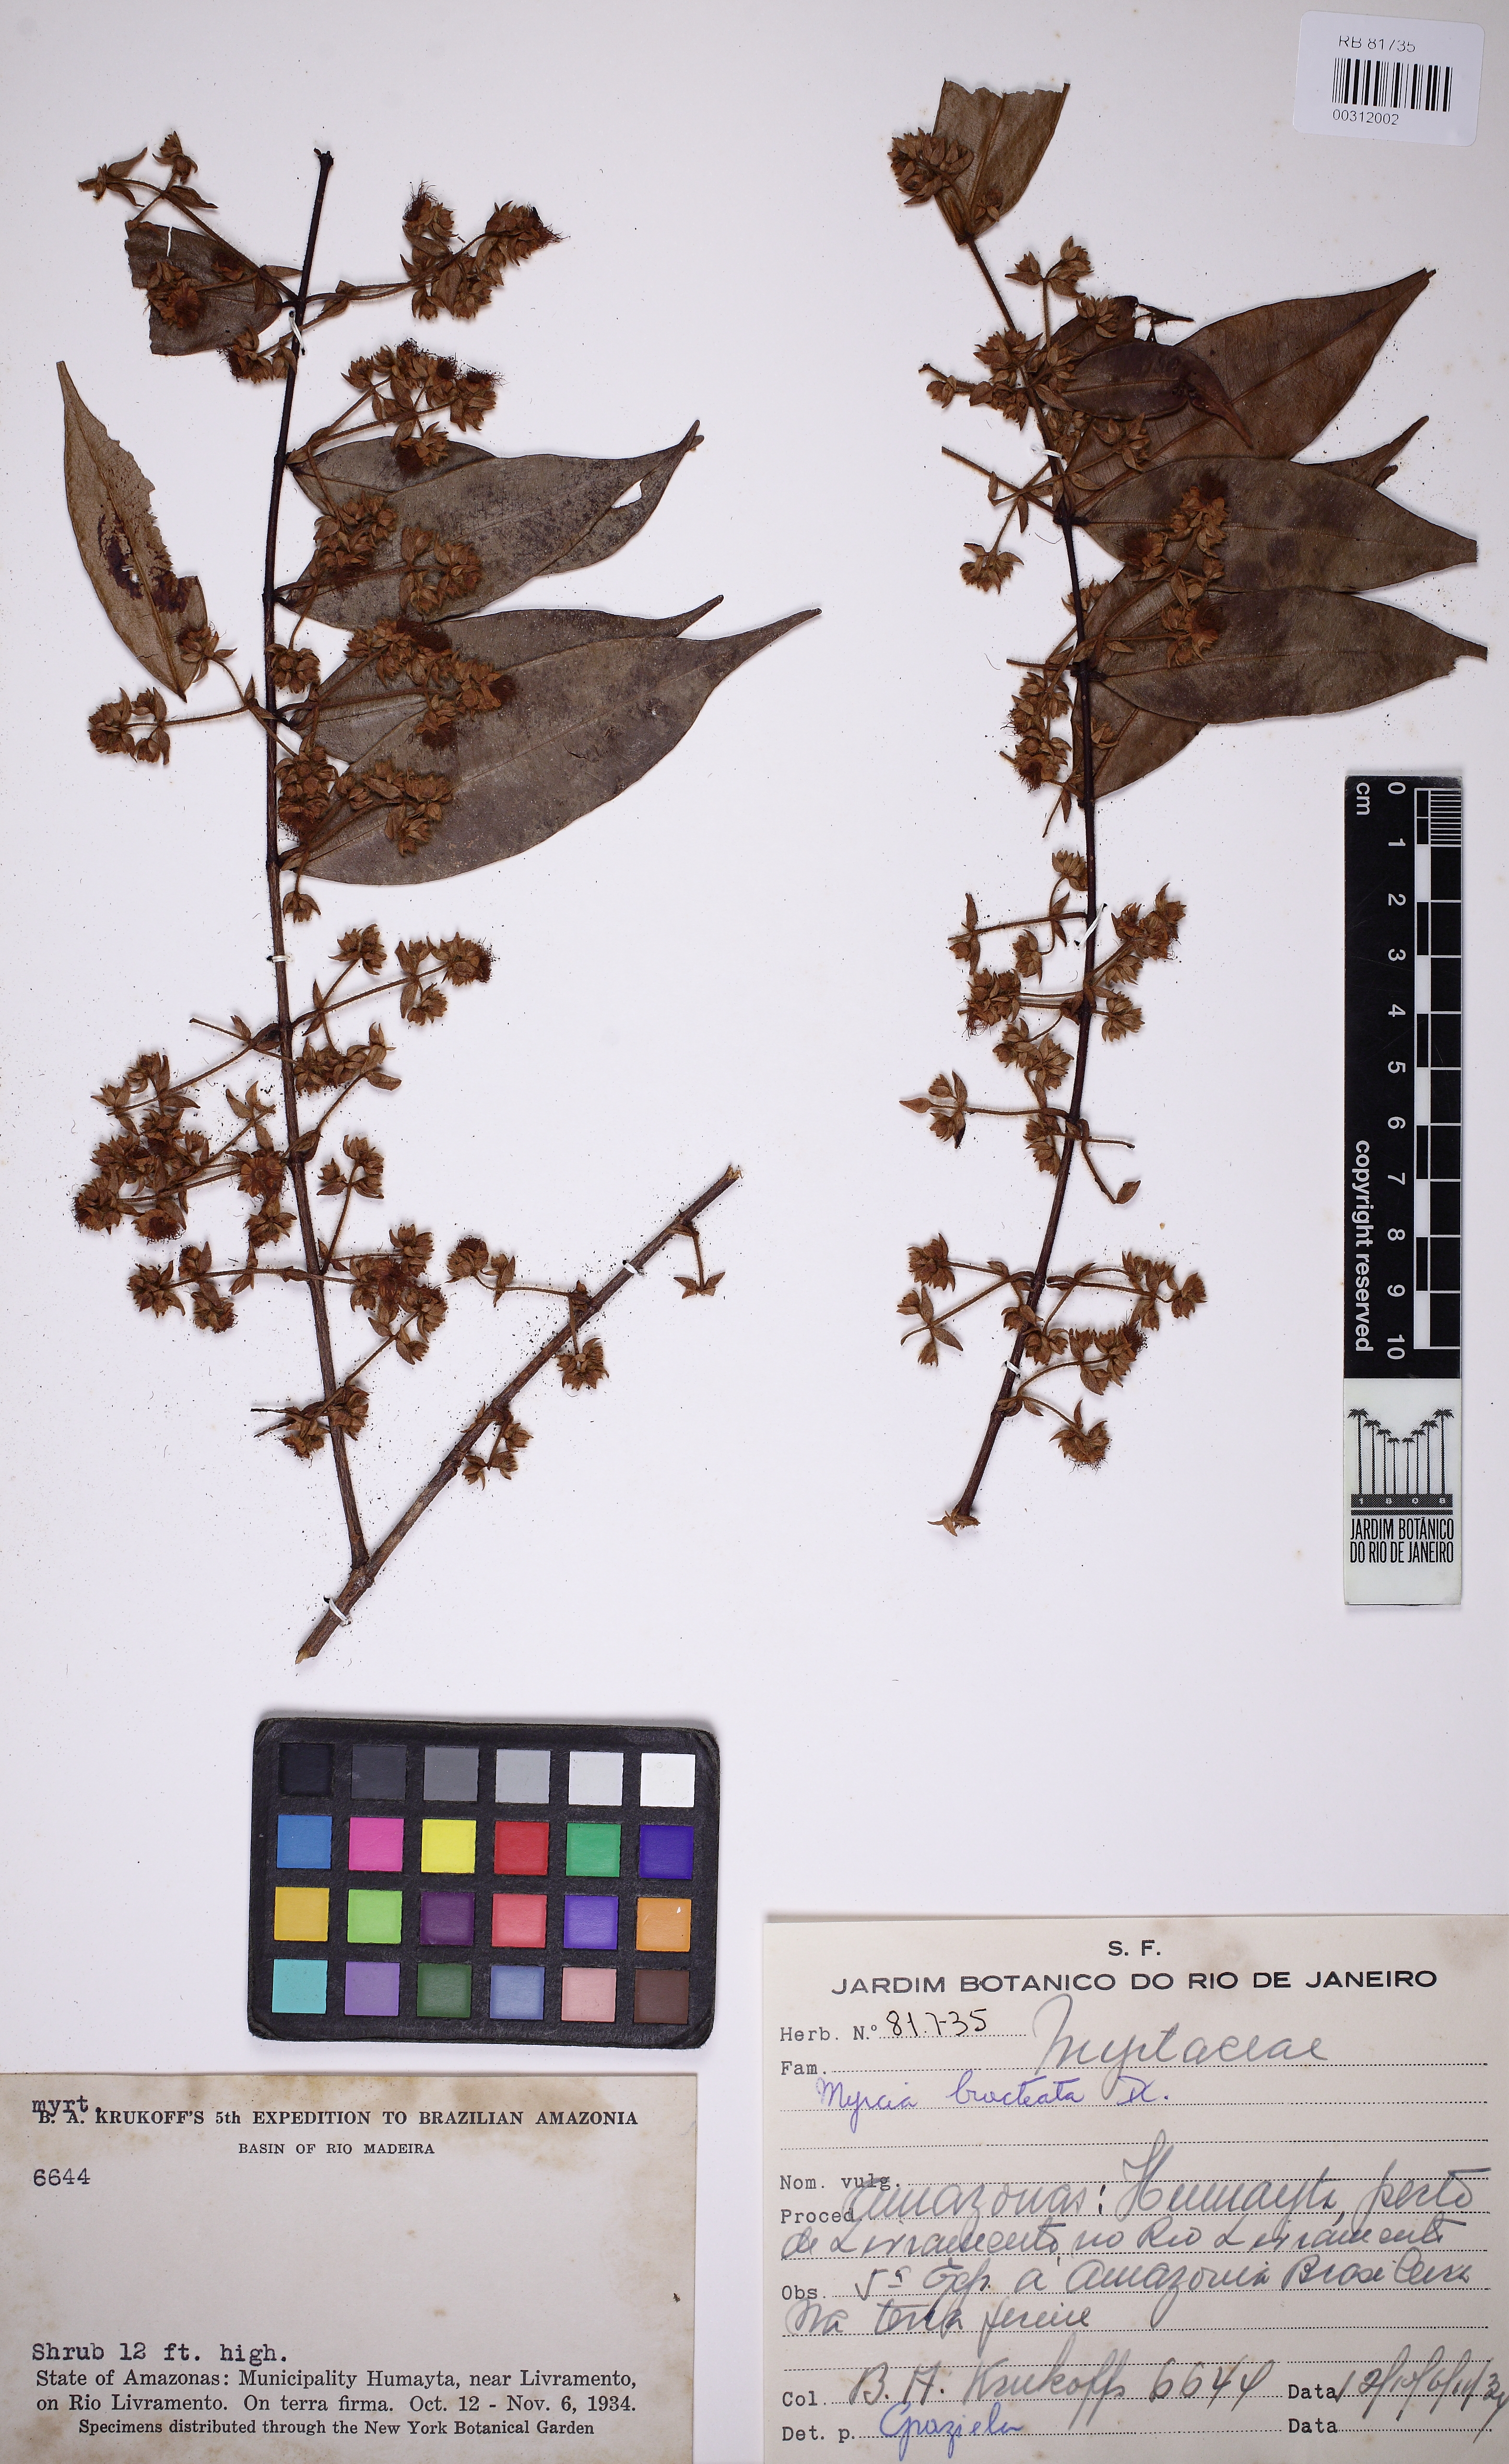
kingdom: Plantae
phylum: Tracheophyta
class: Magnoliopsida
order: Myrtales
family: Myrtaceae
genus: Myrcia
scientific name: Myrcia bracteata
